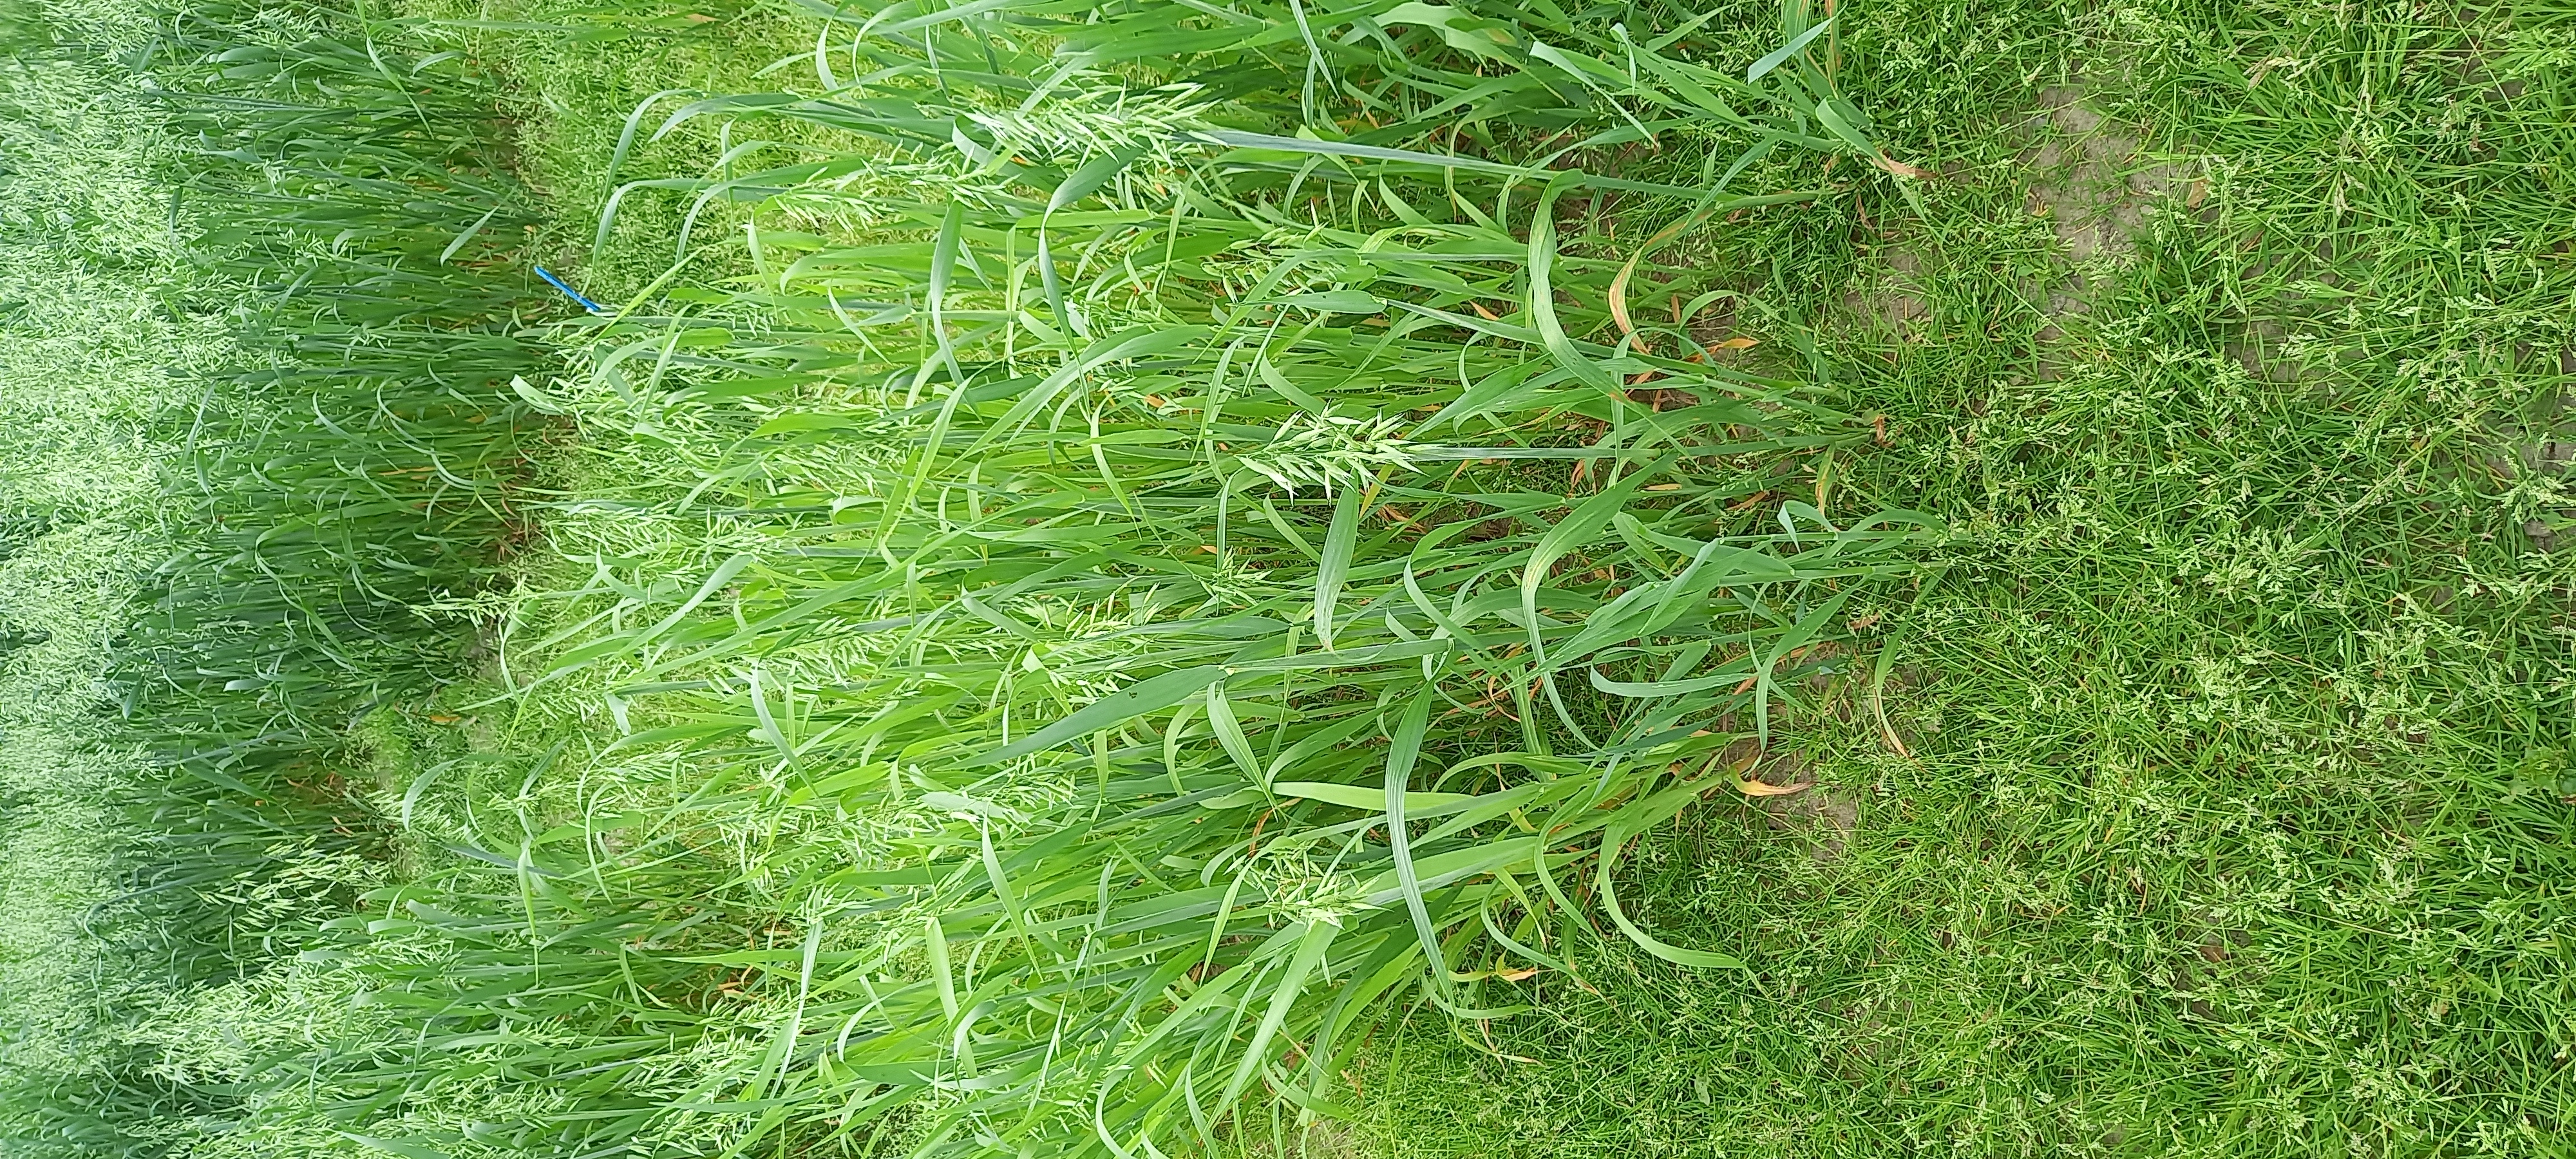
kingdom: Plantae
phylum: Tracheophyta
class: Liliopsida
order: Poales
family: Poaceae
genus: Avena
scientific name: Avena sativa
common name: Oat
